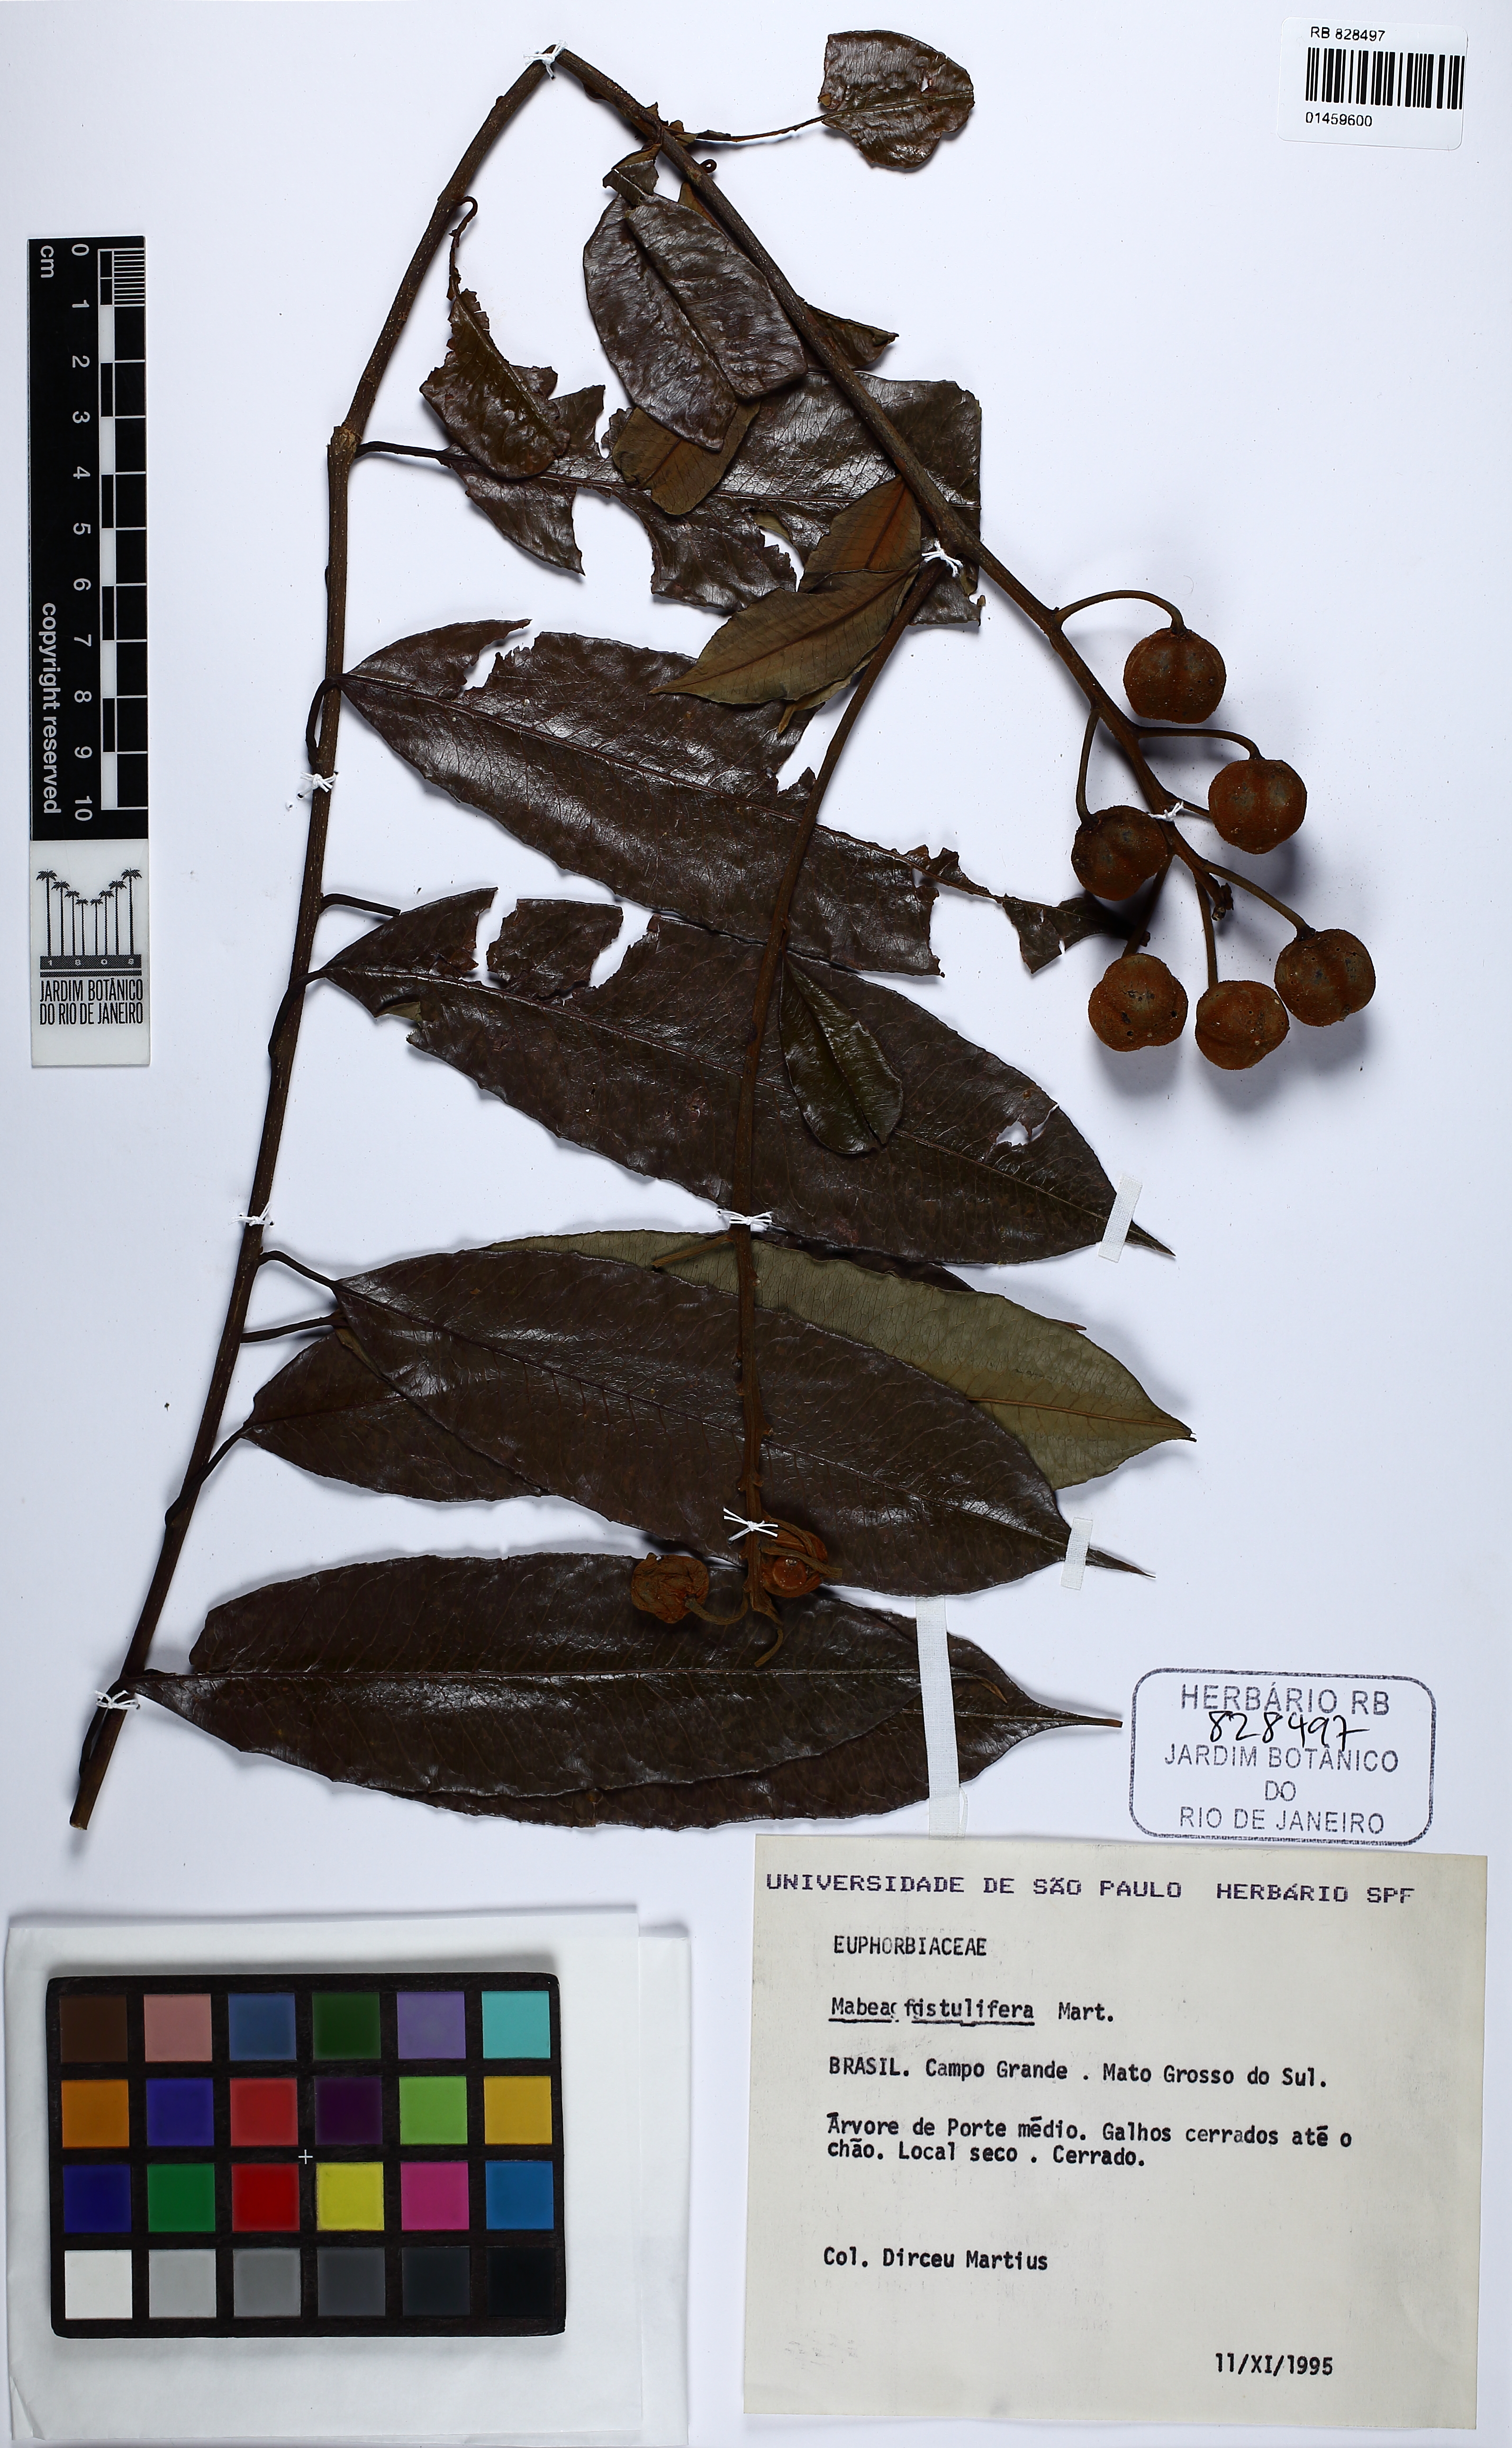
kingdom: Plantae
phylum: Tracheophyta
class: Magnoliopsida
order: Malpighiales
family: Euphorbiaceae
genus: Mabea
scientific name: Mabea fistulifera
